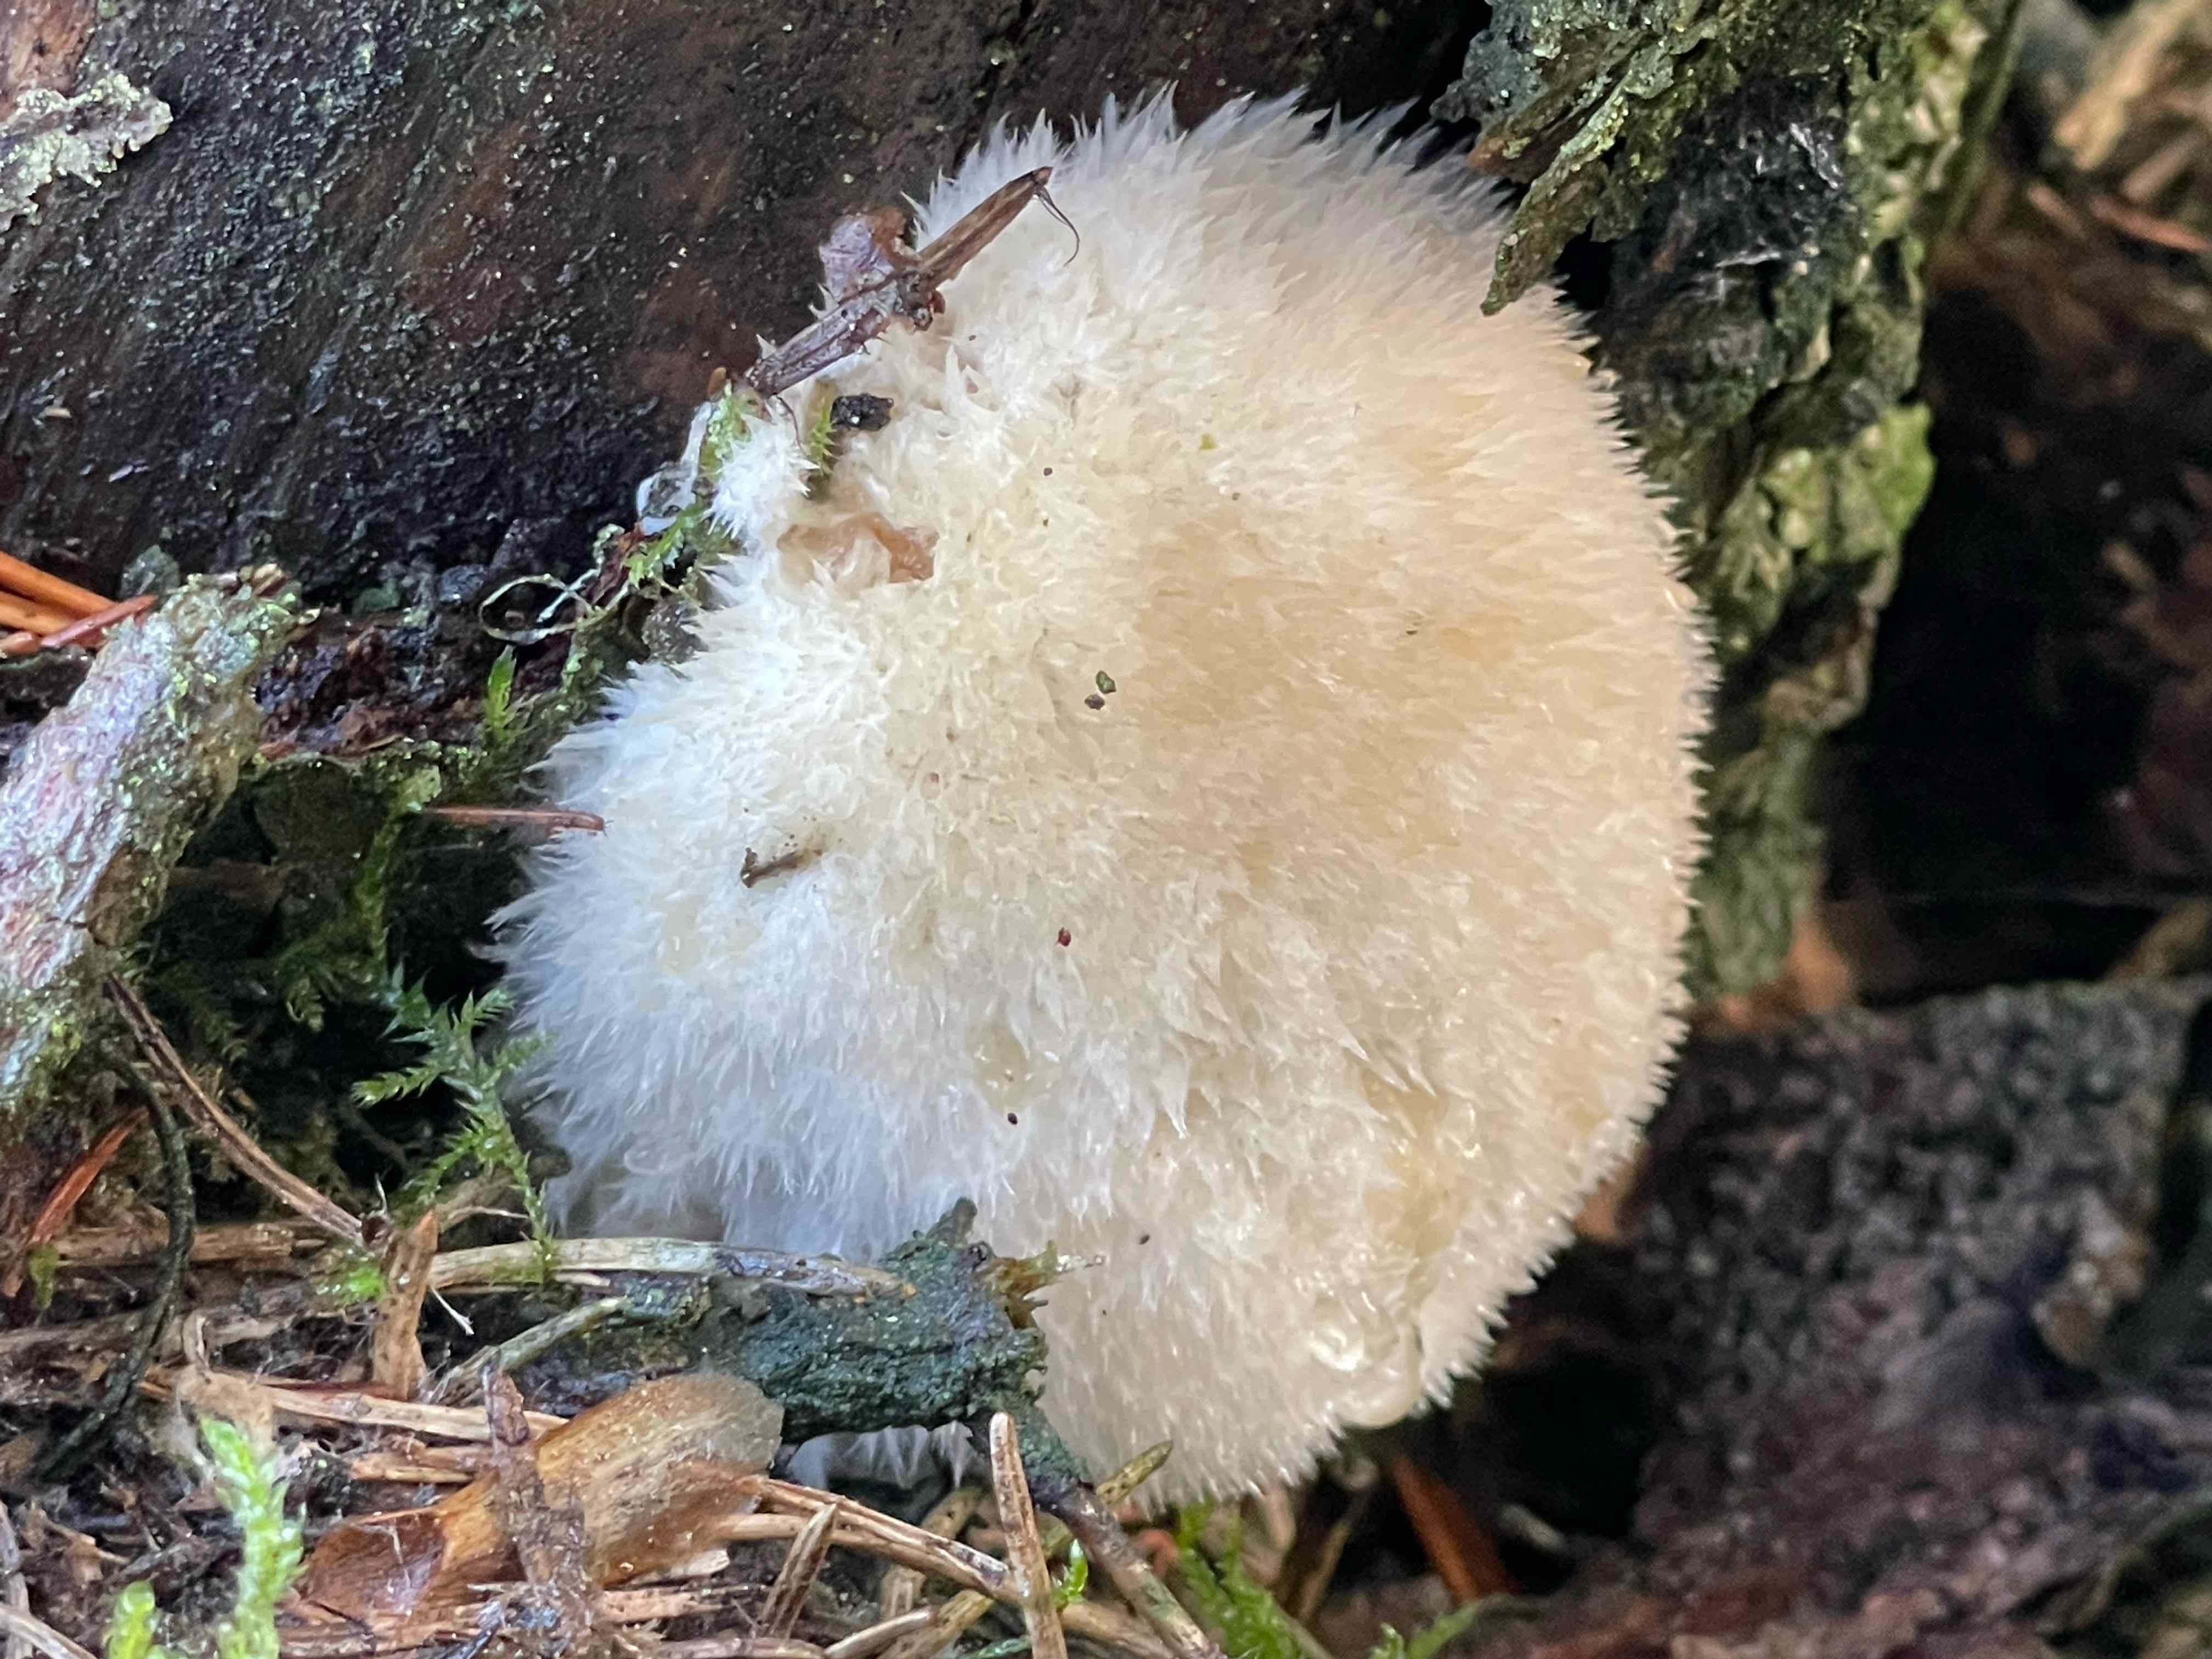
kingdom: Fungi
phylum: Basidiomycota
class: Agaricomycetes
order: Polyporales
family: Dacryobolaceae
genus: Postia
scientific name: Postia ptychogaster
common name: støvende kødporesvamp
